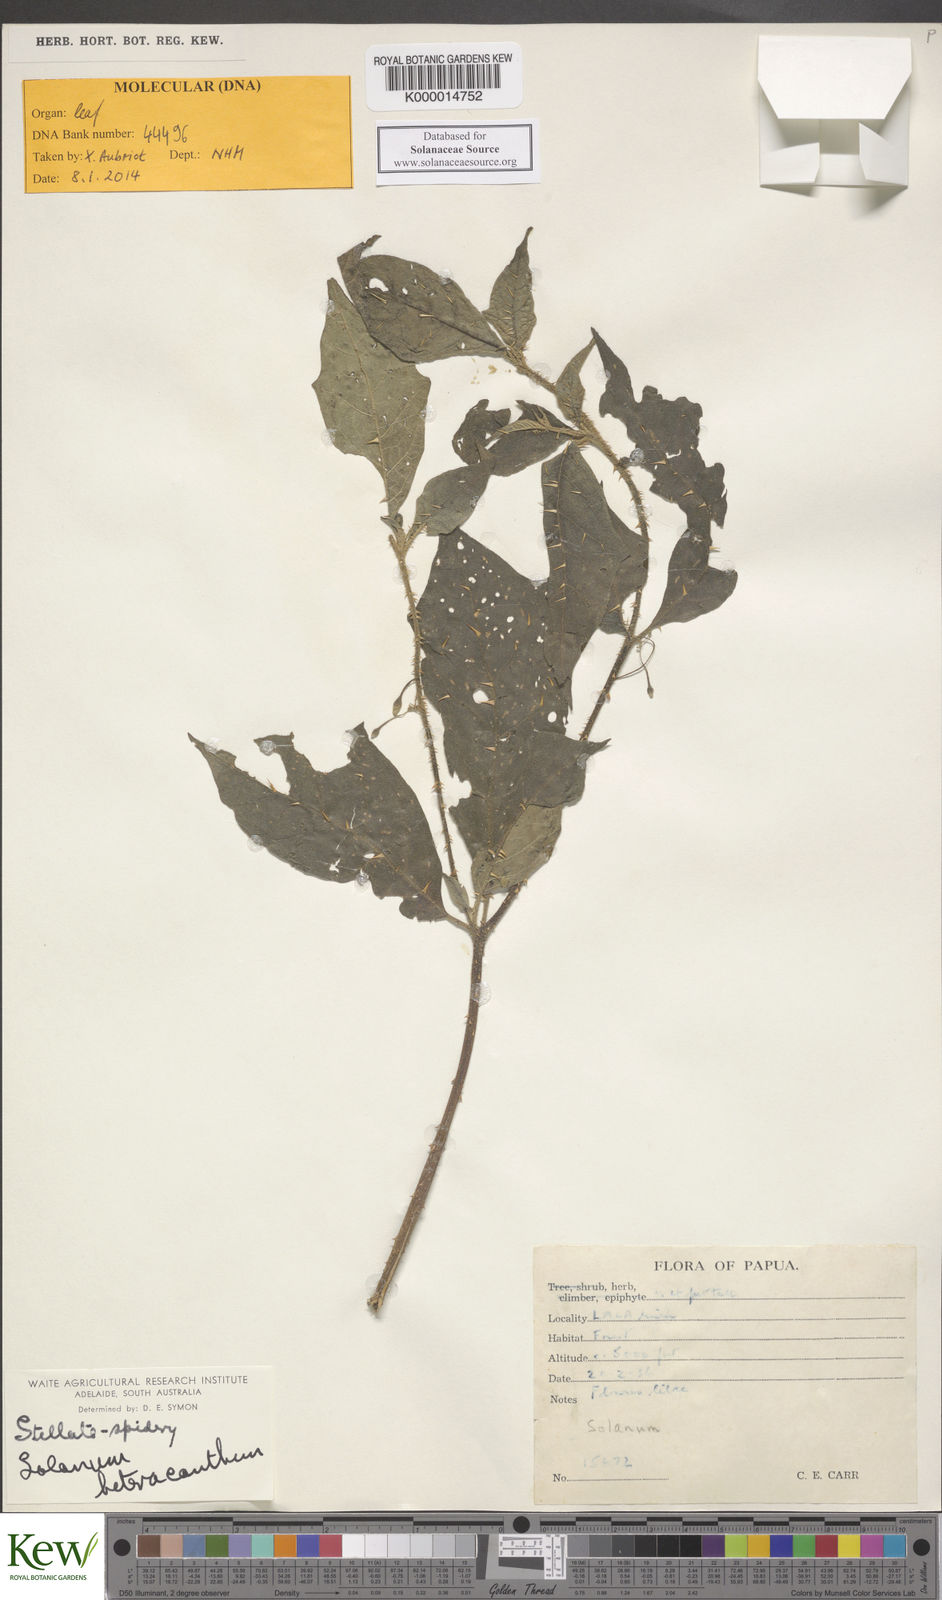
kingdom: Plantae
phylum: Tracheophyta
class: Magnoliopsida
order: Solanales
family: Solanaceae
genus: Solanum
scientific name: Solanum galactites
